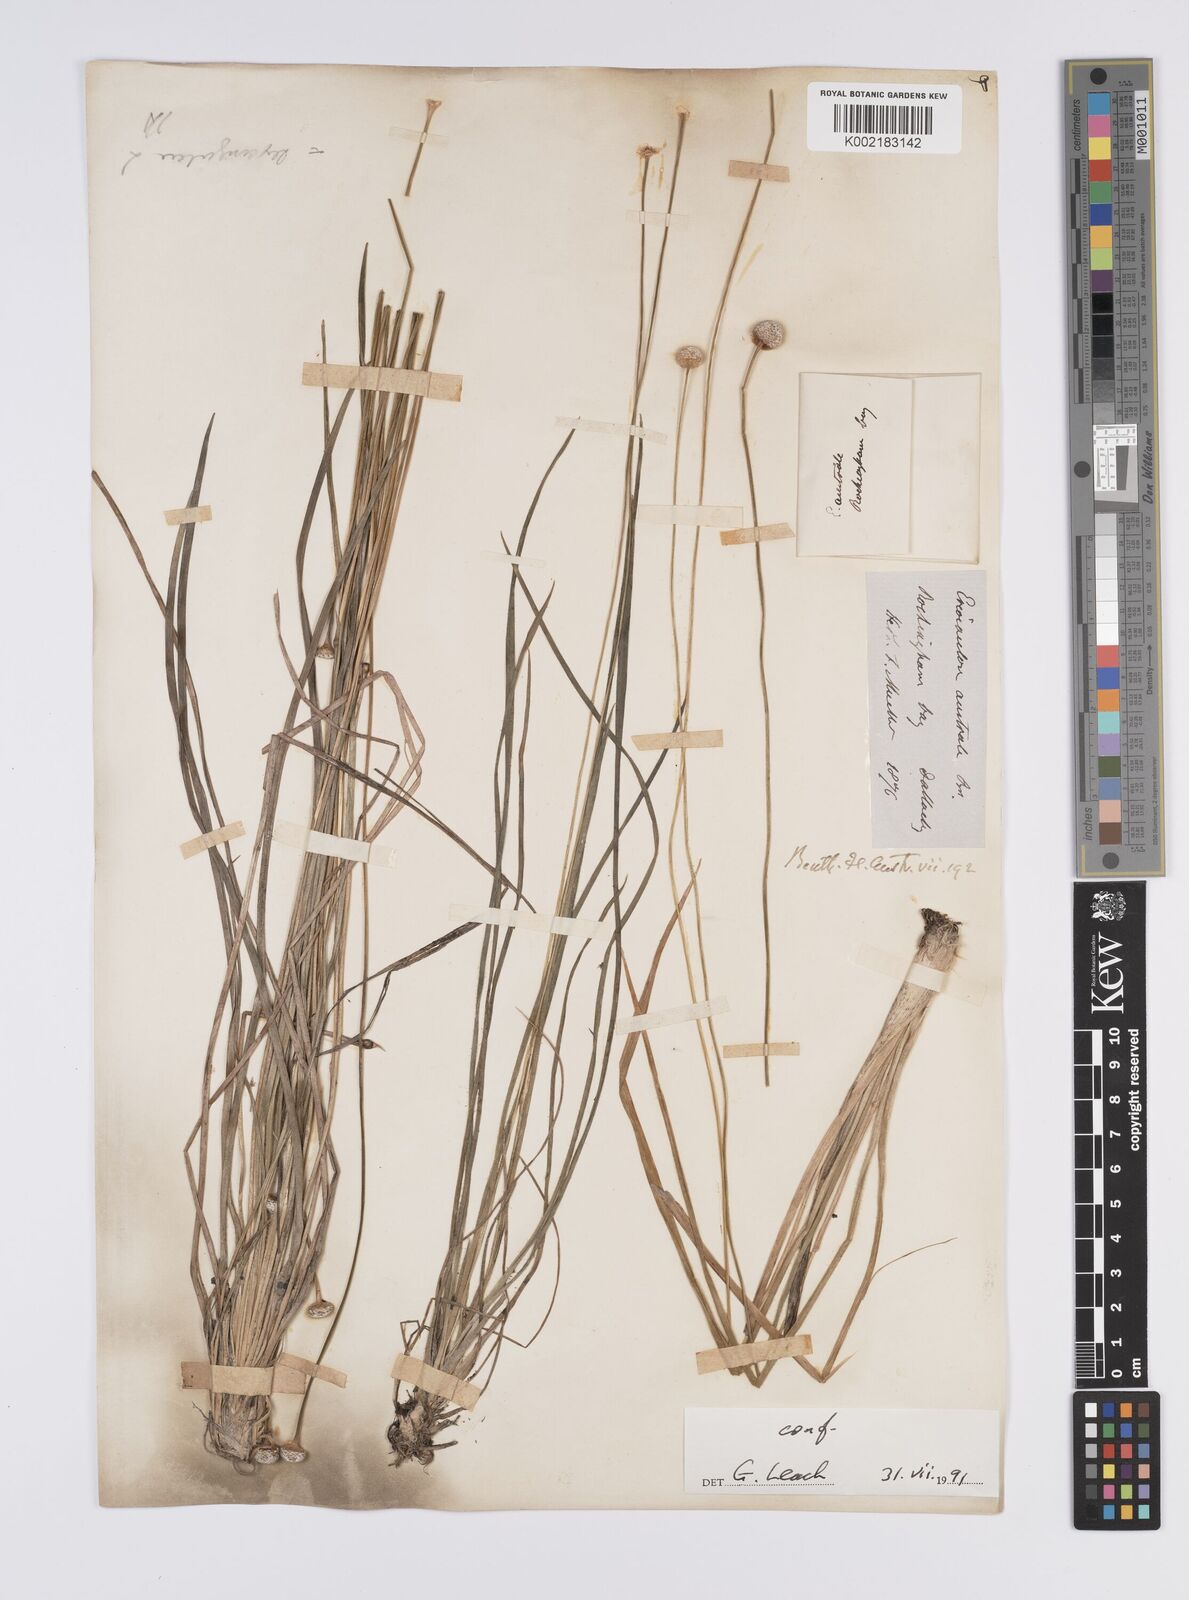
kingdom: Plantae
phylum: Tracheophyta
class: Liliopsida
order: Poales
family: Eriocaulaceae
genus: Eriocaulon
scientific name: Eriocaulon australe
